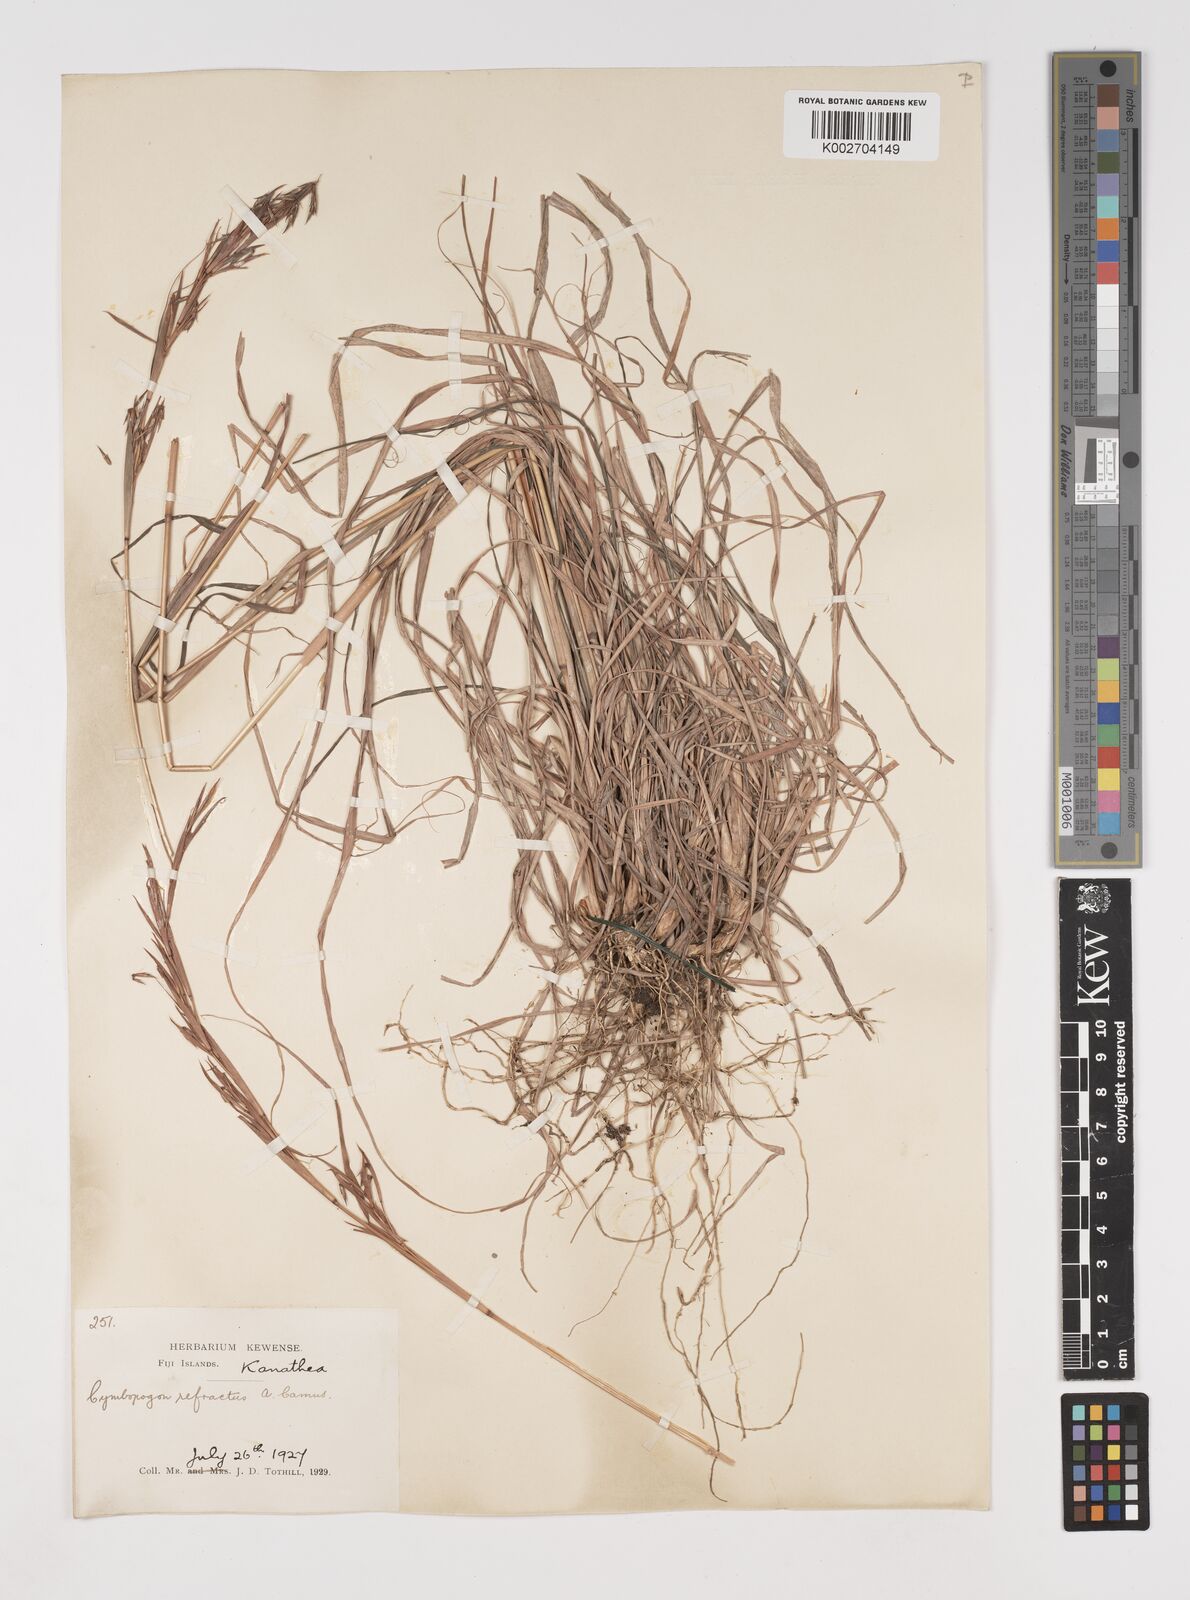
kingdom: Plantae
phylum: Tracheophyta
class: Liliopsida
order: Poales
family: Poaceae
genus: Cymbopogon
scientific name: Cymbopogon refractus
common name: Barbwire grass
